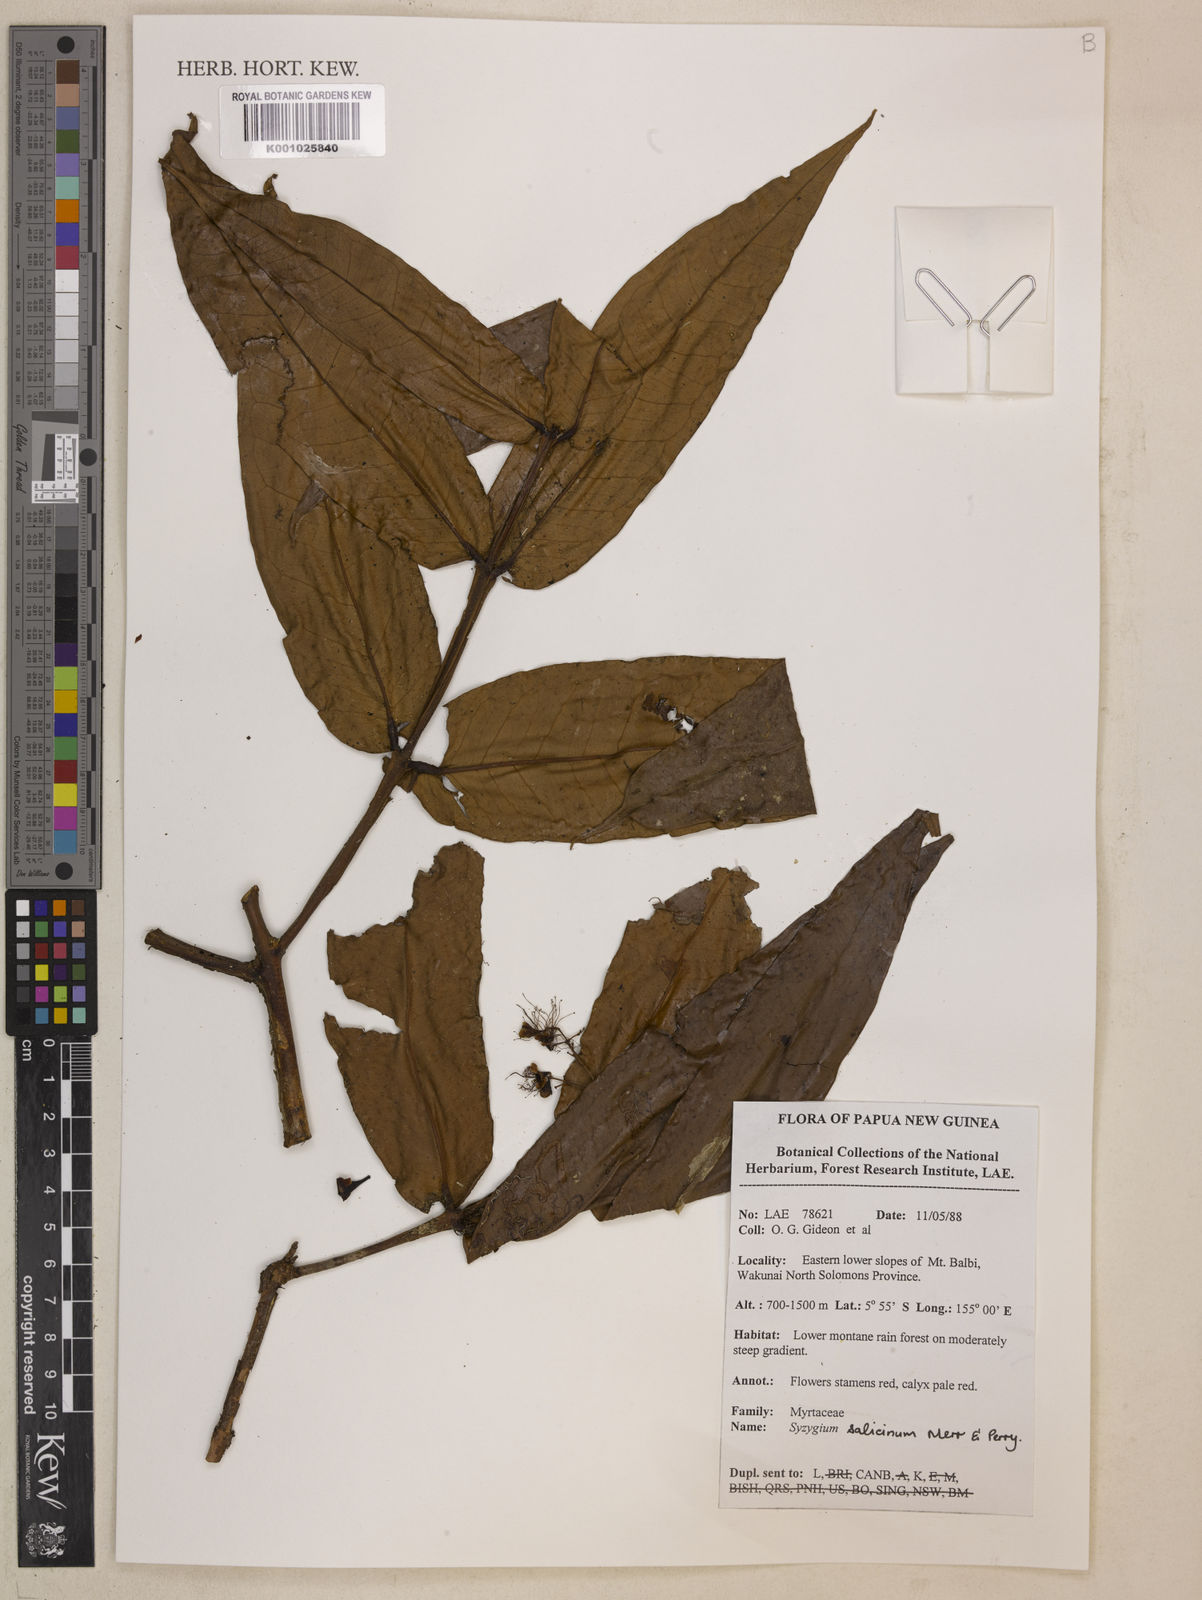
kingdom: Plantae
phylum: Tracheophyta
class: Magnoliopsida
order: Myrtales
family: Myrtaceae
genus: Syzygium
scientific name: Syzygium salicinum
